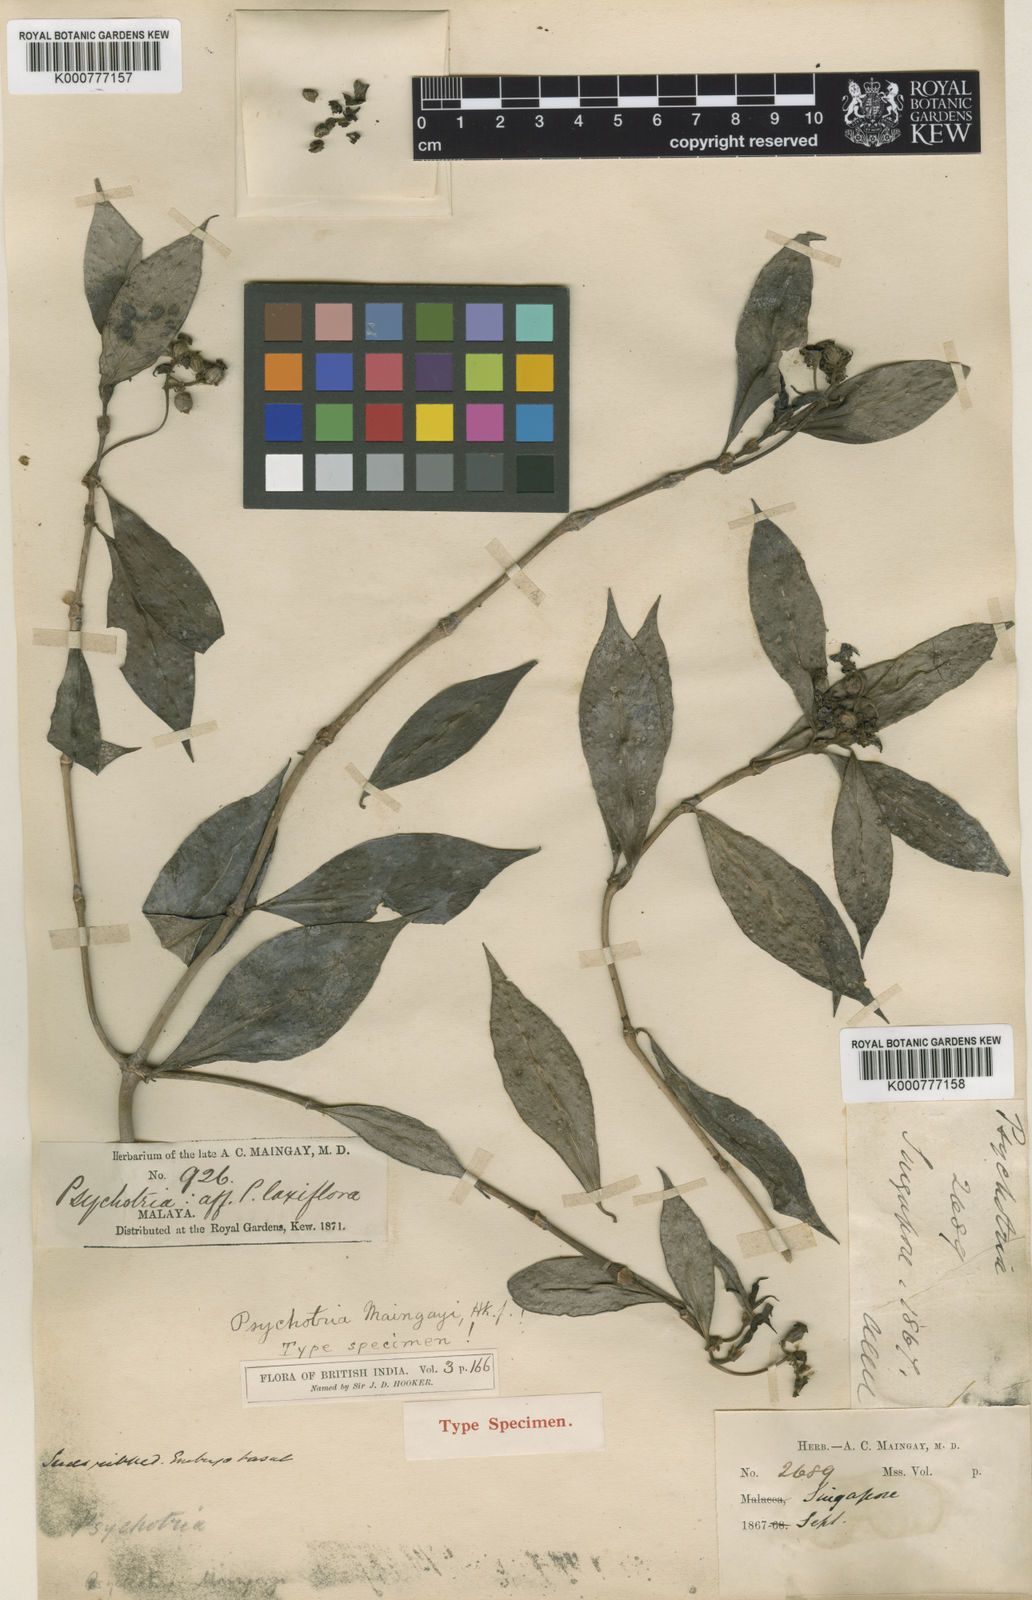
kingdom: Plantae
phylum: Tracheophyta
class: Magnoliopsida
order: Gentianales
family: Rubiaceae
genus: Psychotria
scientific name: Psychotria maingayi
